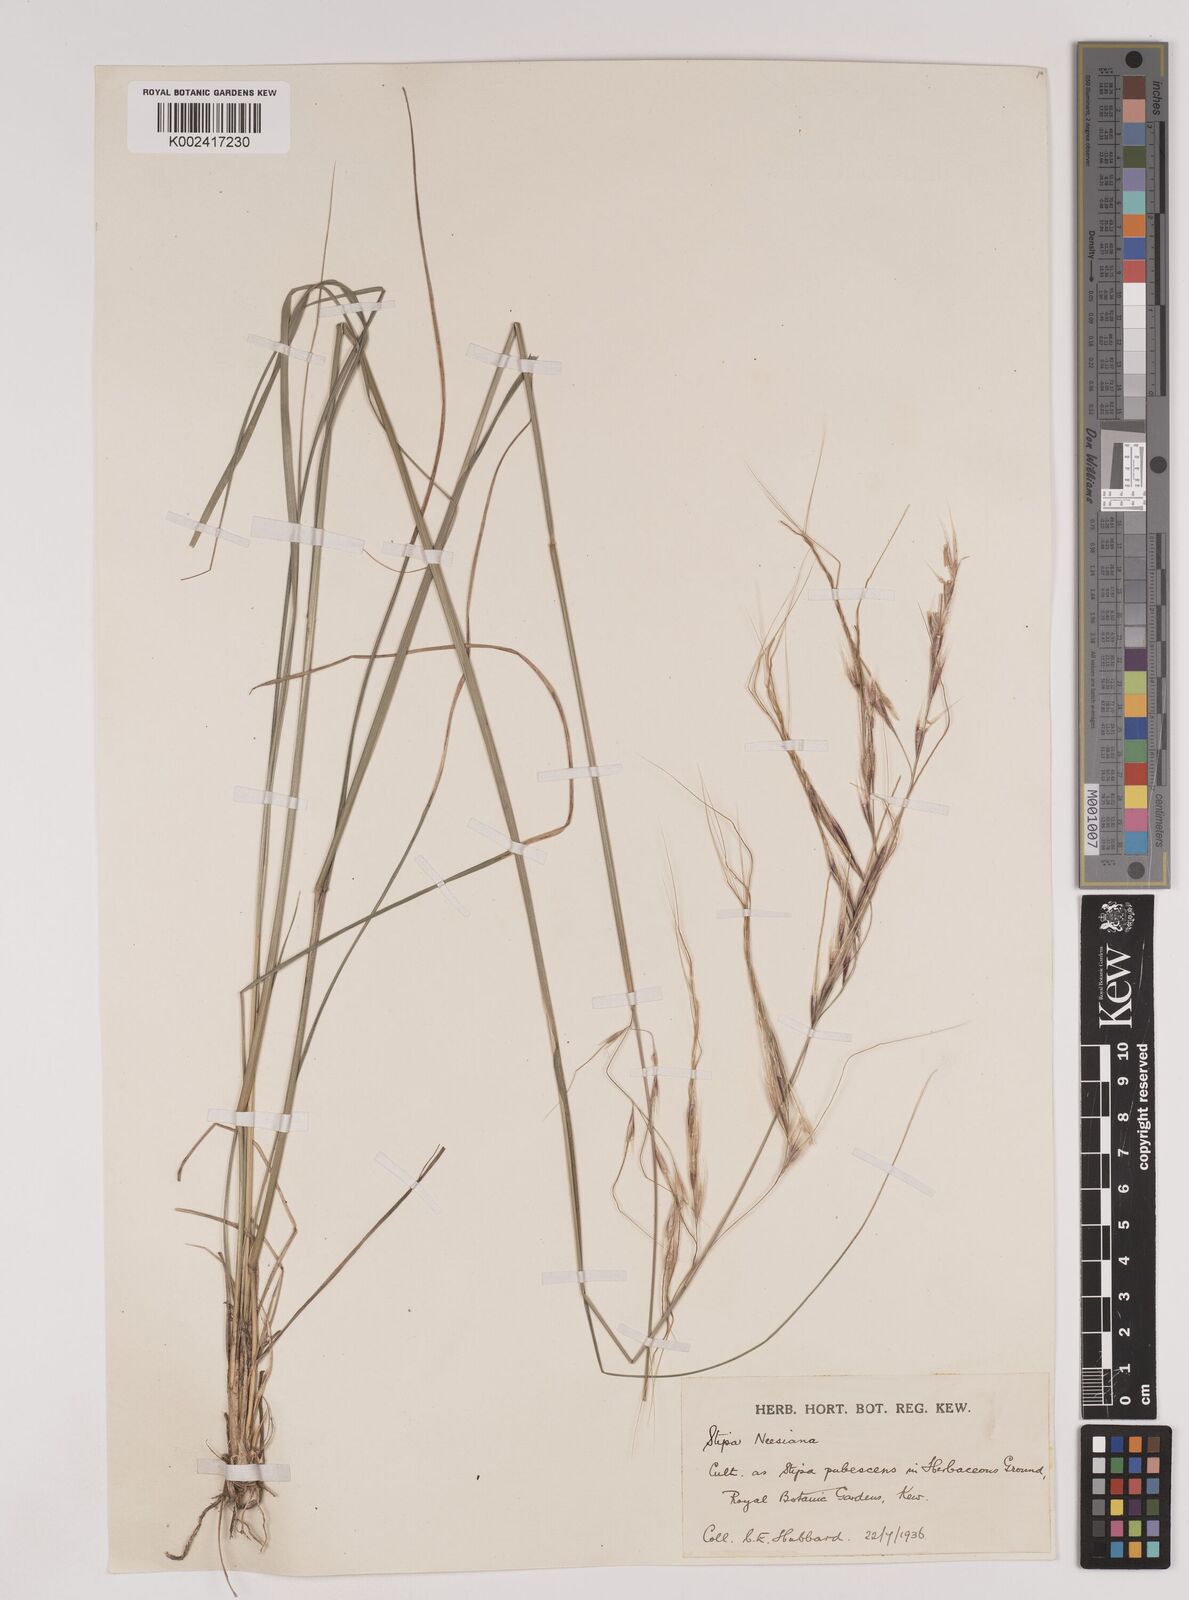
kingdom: Plantae
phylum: Tracheophyta
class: Liliopsida
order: Poales
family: Poaceae
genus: Nassella
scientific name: Nassella neesiana
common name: American needle-grass
